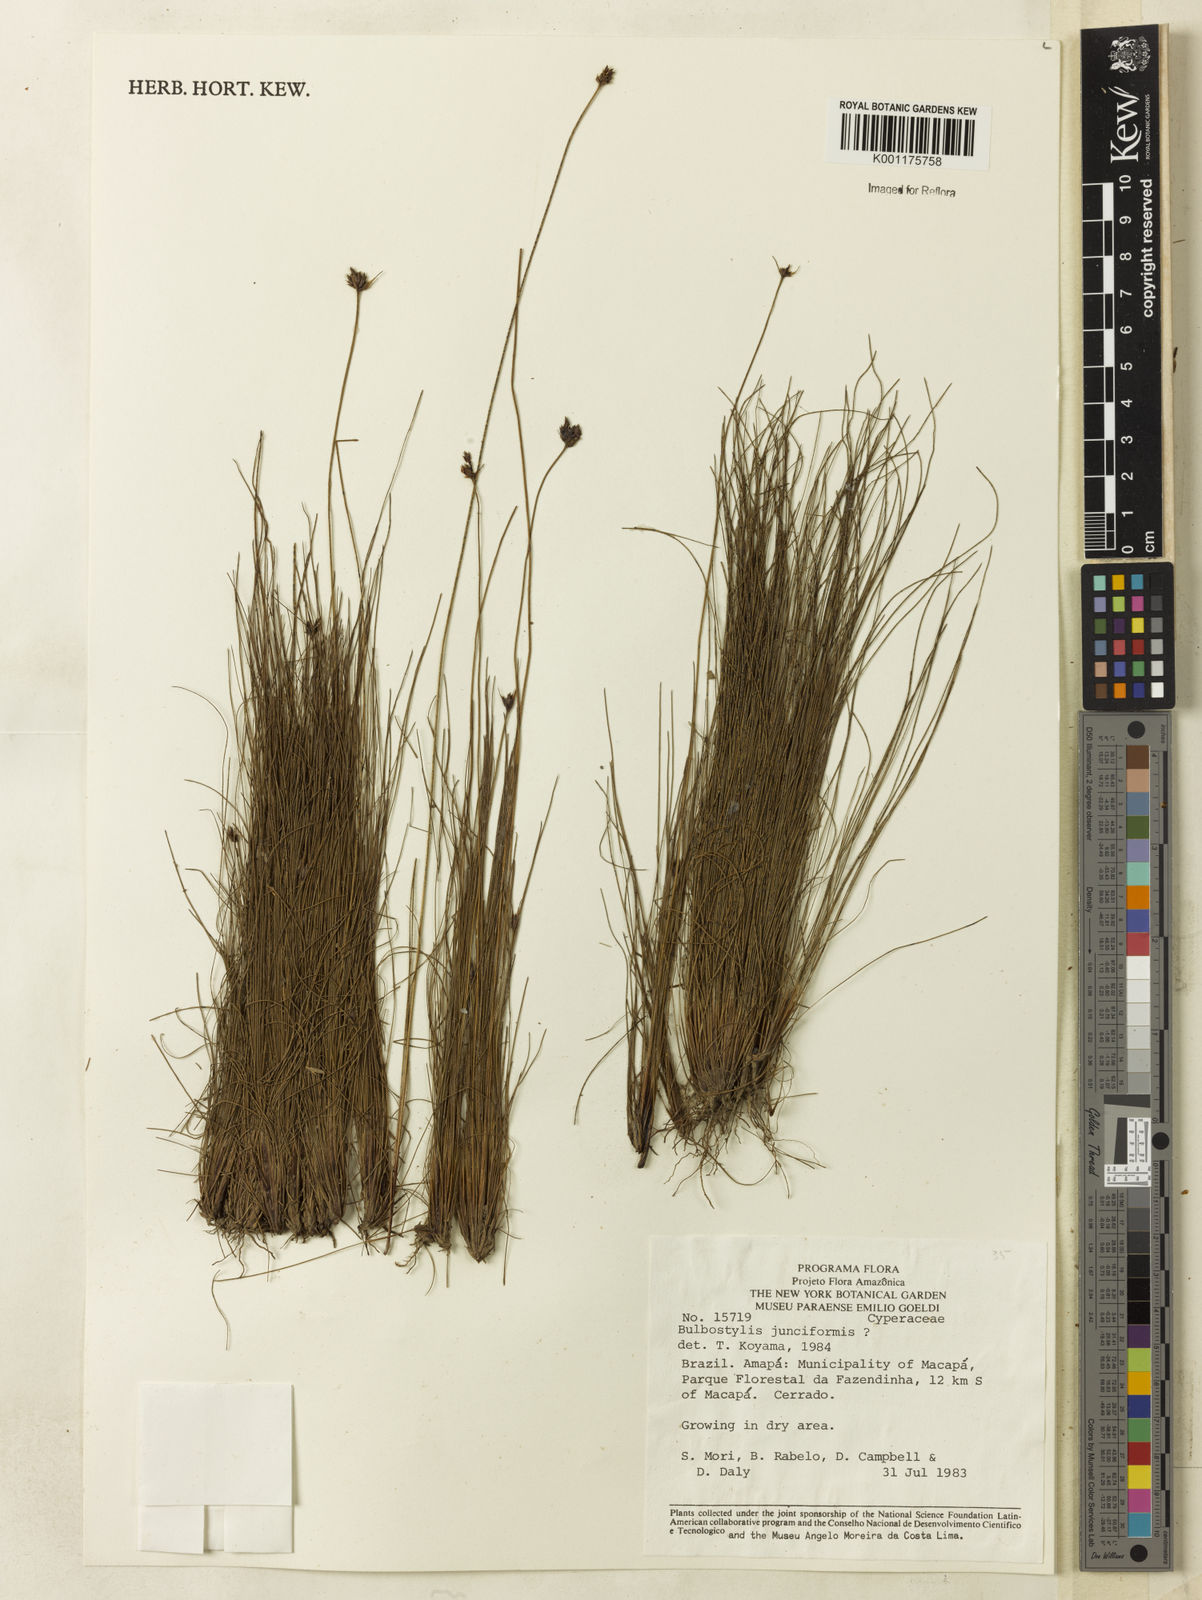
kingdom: Plantae
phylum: Tracheophyta
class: Liliopsida
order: Poales
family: Cyperaceae
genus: Bulbostylis
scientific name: Bulbostylis junciformis
